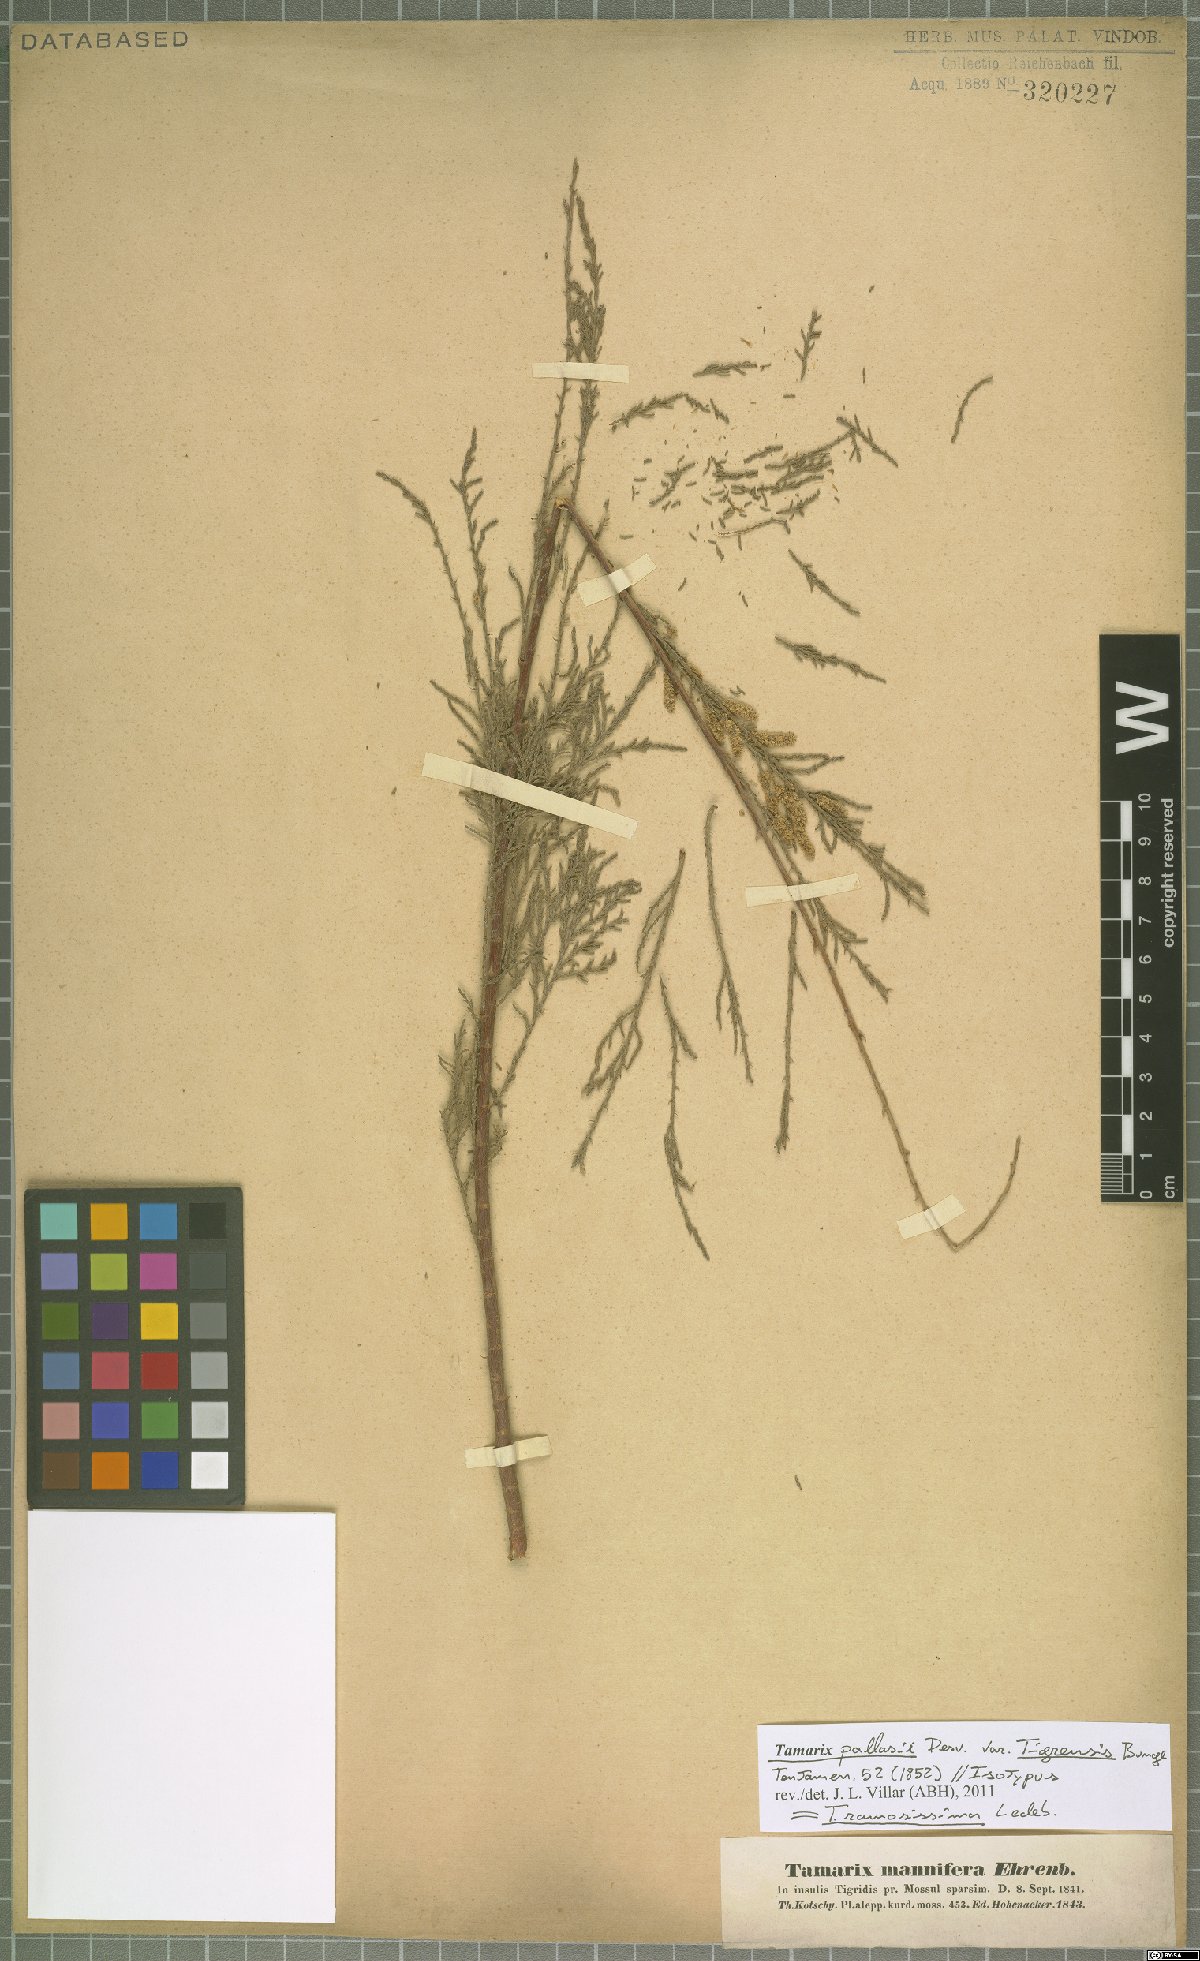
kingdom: Plantae
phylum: Tracheophyta
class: Magnoliopsida
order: Caryophyllales
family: Tamaricaceae
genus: Tamarix
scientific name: Tamarix ramosissima
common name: Pink tamarisk
